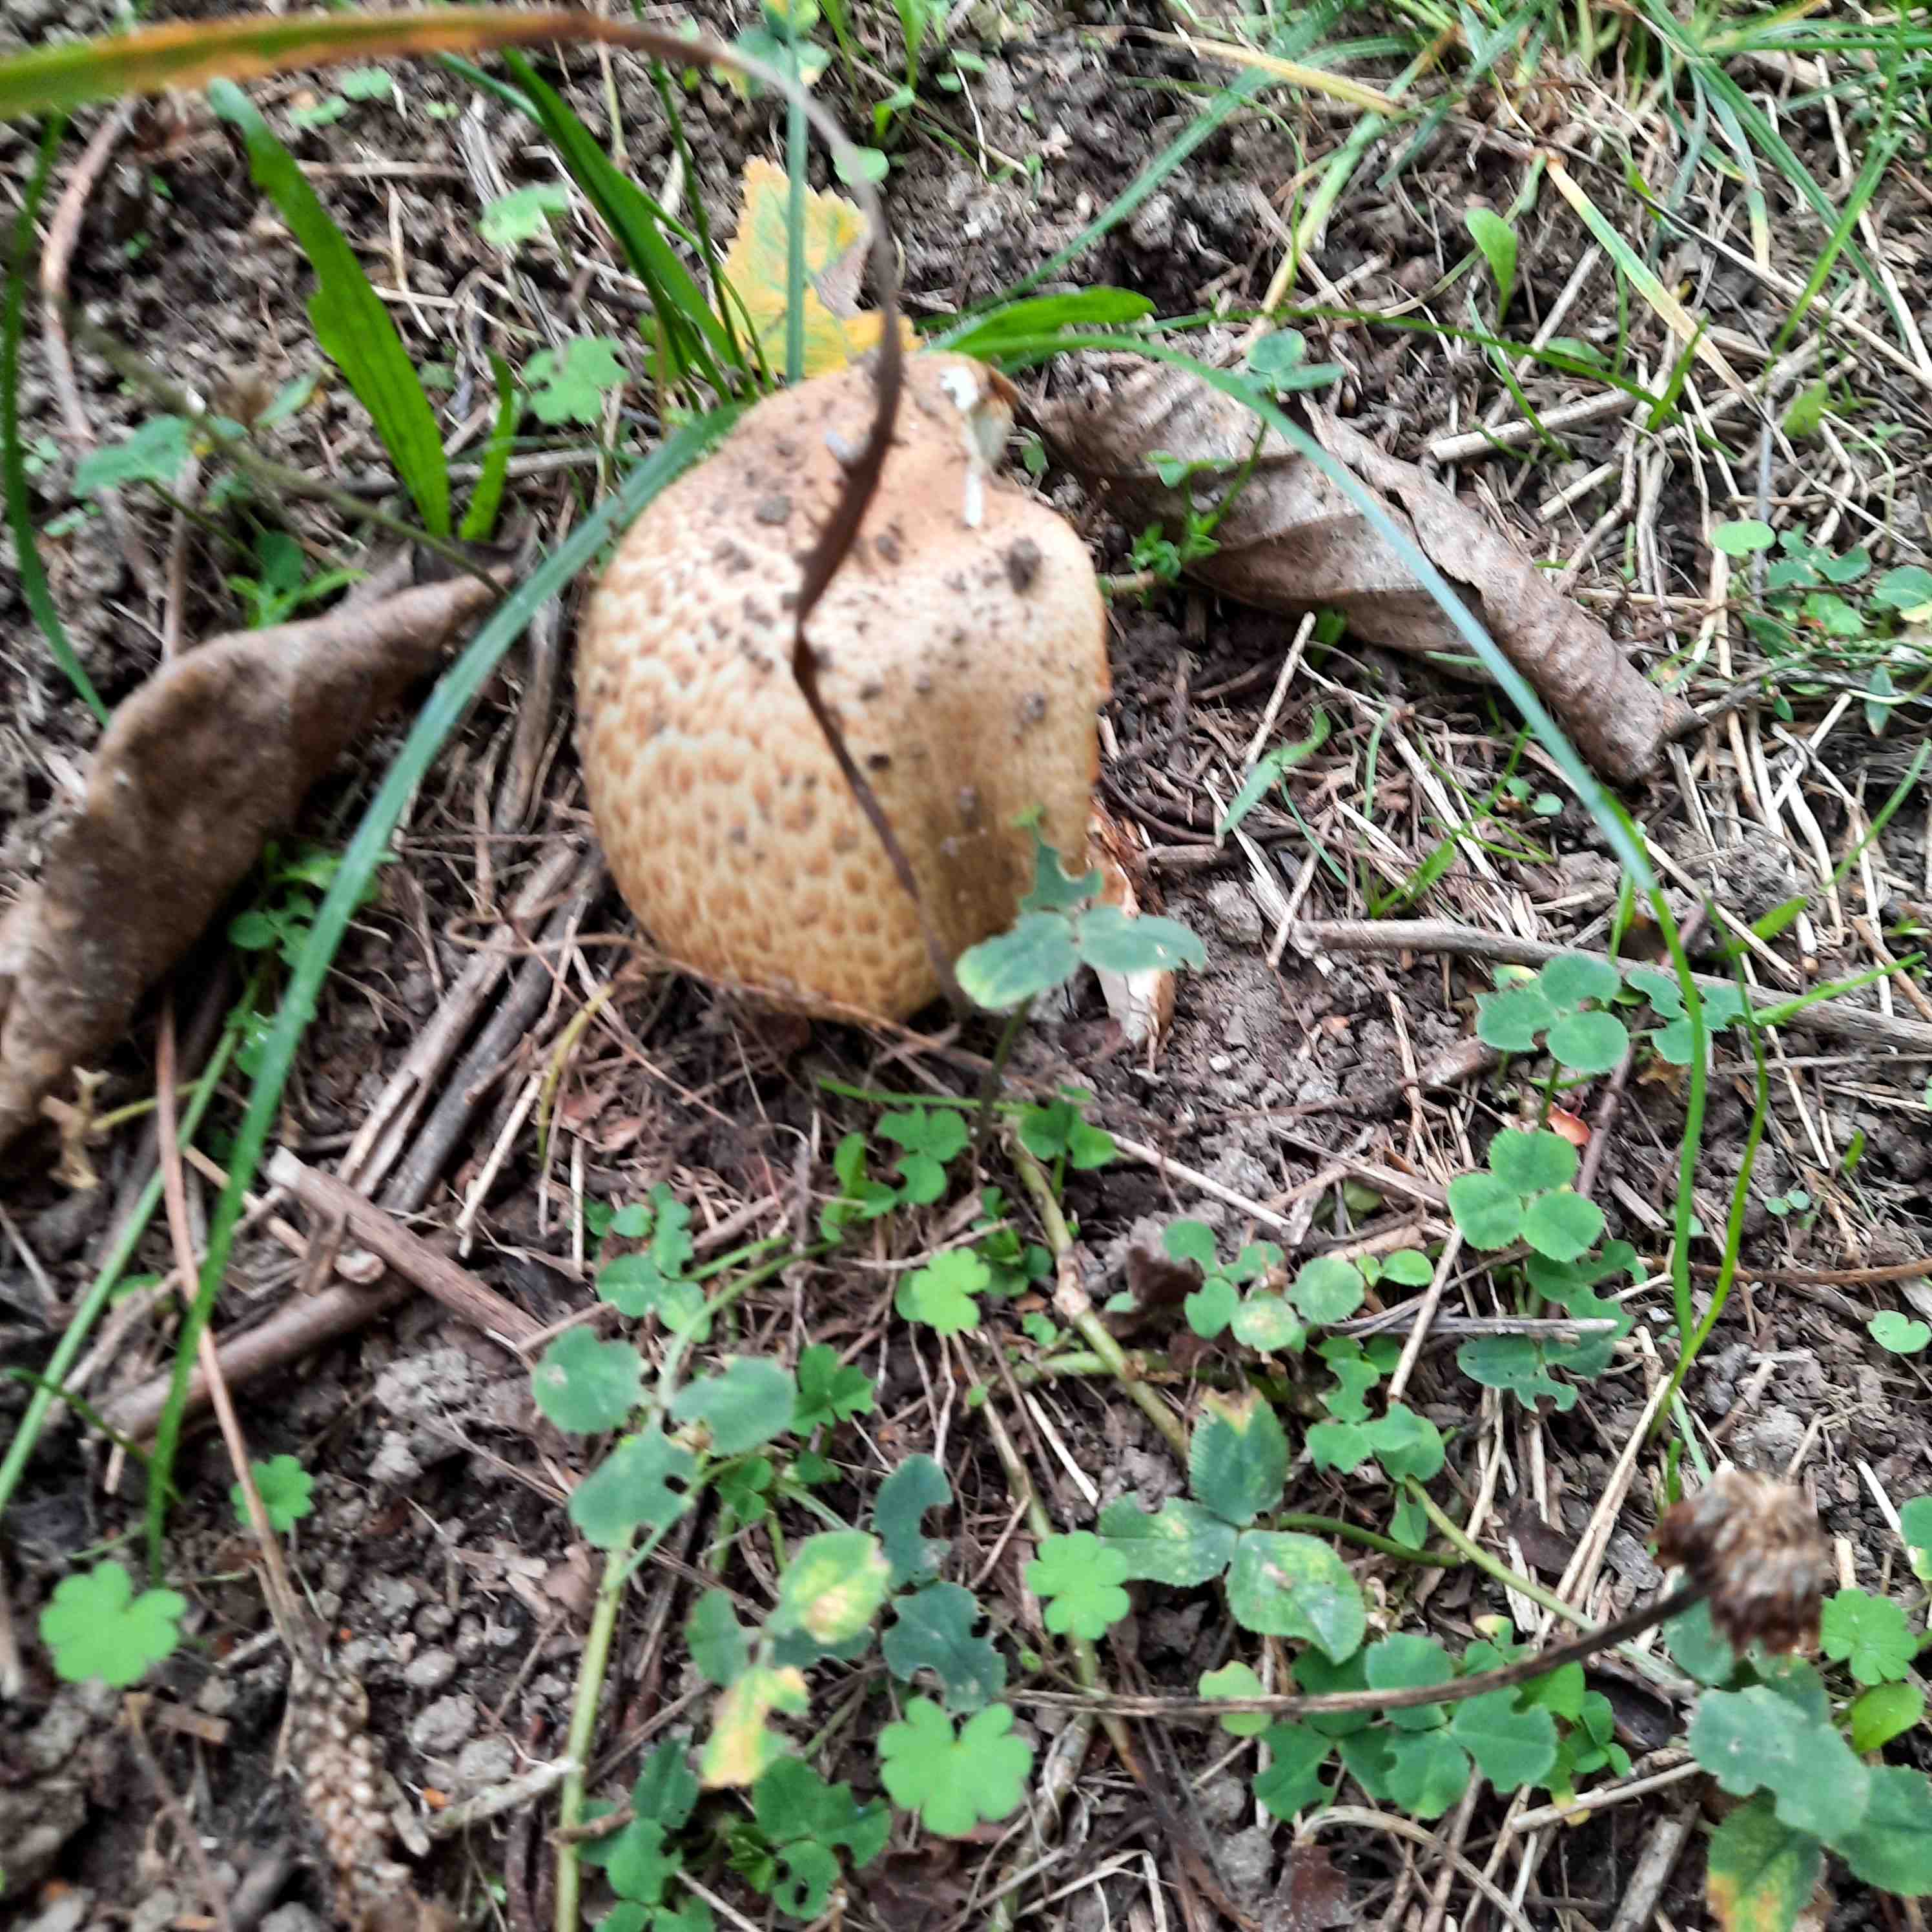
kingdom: Fungi
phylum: Basidiomycota
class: Agaricomycetes
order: Agaricales
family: Agaricaceae
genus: Agaricus
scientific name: Agaricus augustus
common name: prægtig champignon
